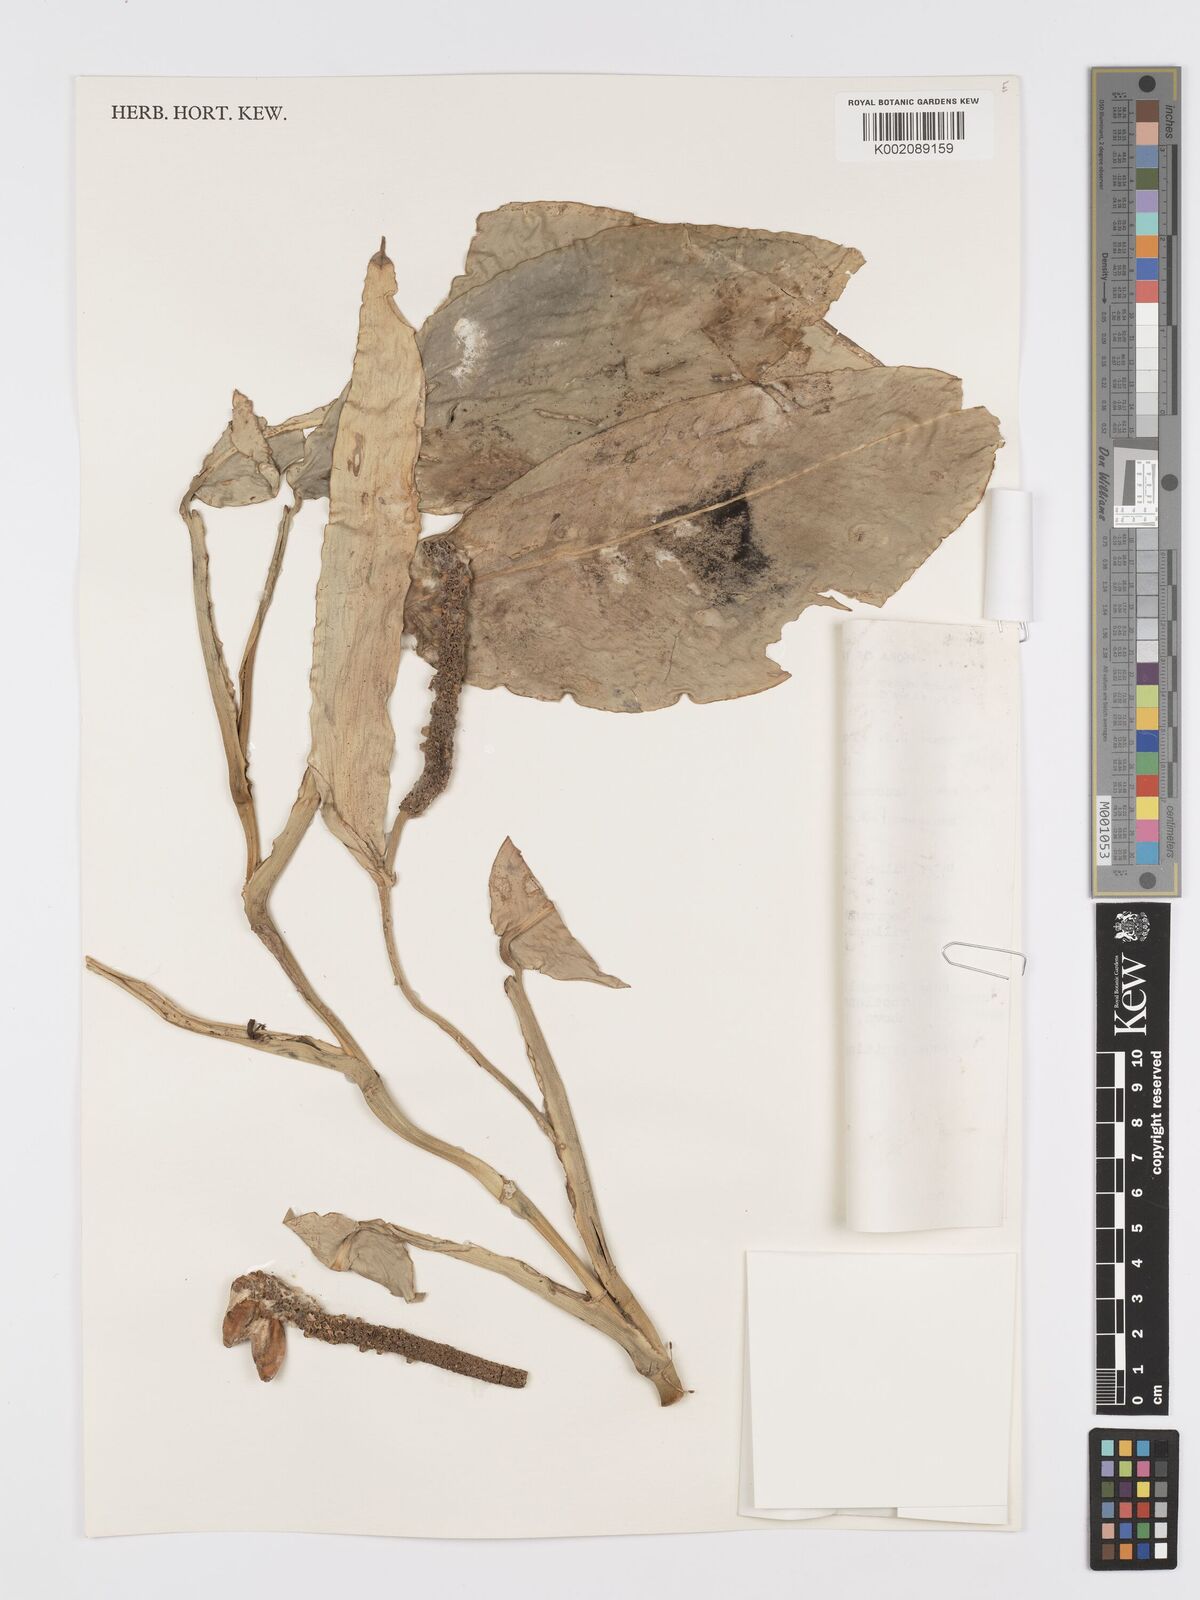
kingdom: Plantae
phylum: Tracheophyta
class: Liliopsida
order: Alismatales
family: Araceae
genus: Pothos
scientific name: Pothos tener
